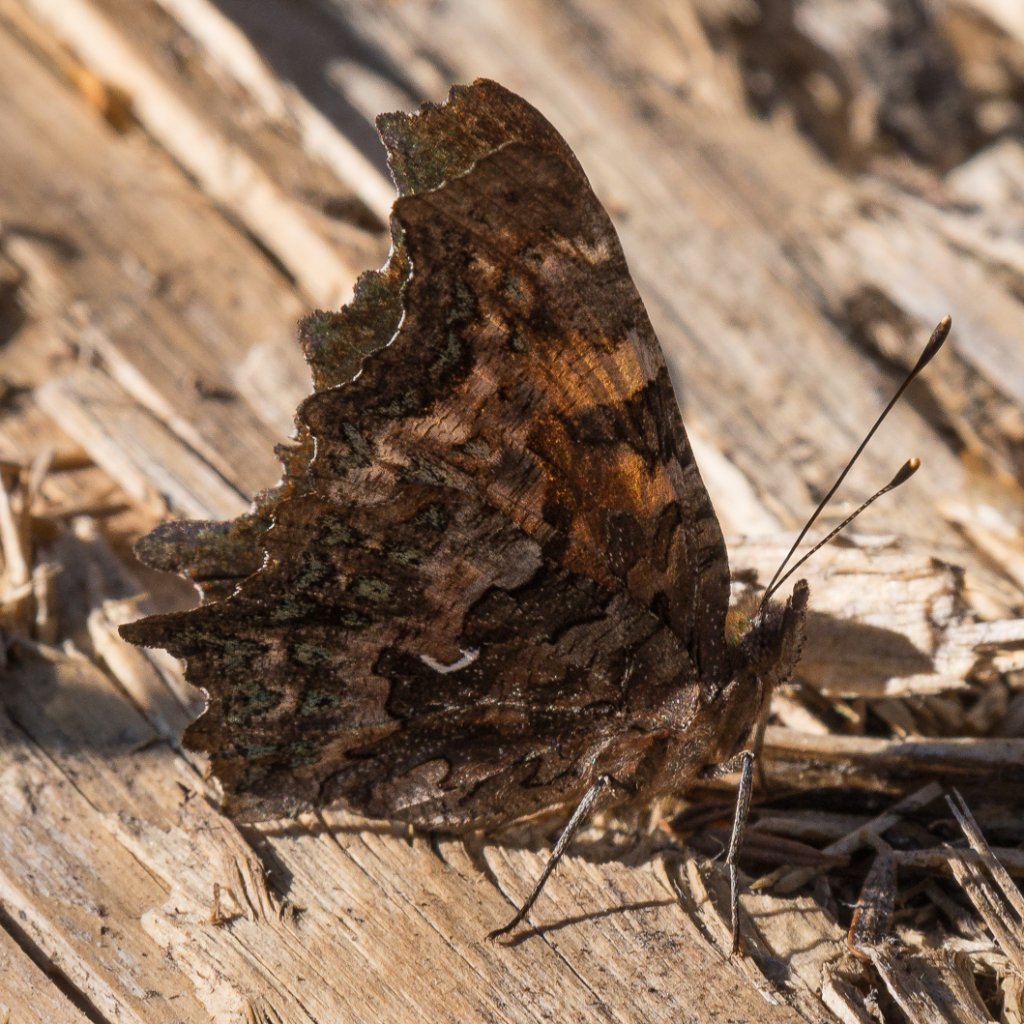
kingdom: Animalia
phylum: Arthropoda
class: Insecta
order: Lepidoptera
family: Nymphalidae
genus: Polygonia
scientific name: Polygonia faunus
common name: Green Comma
